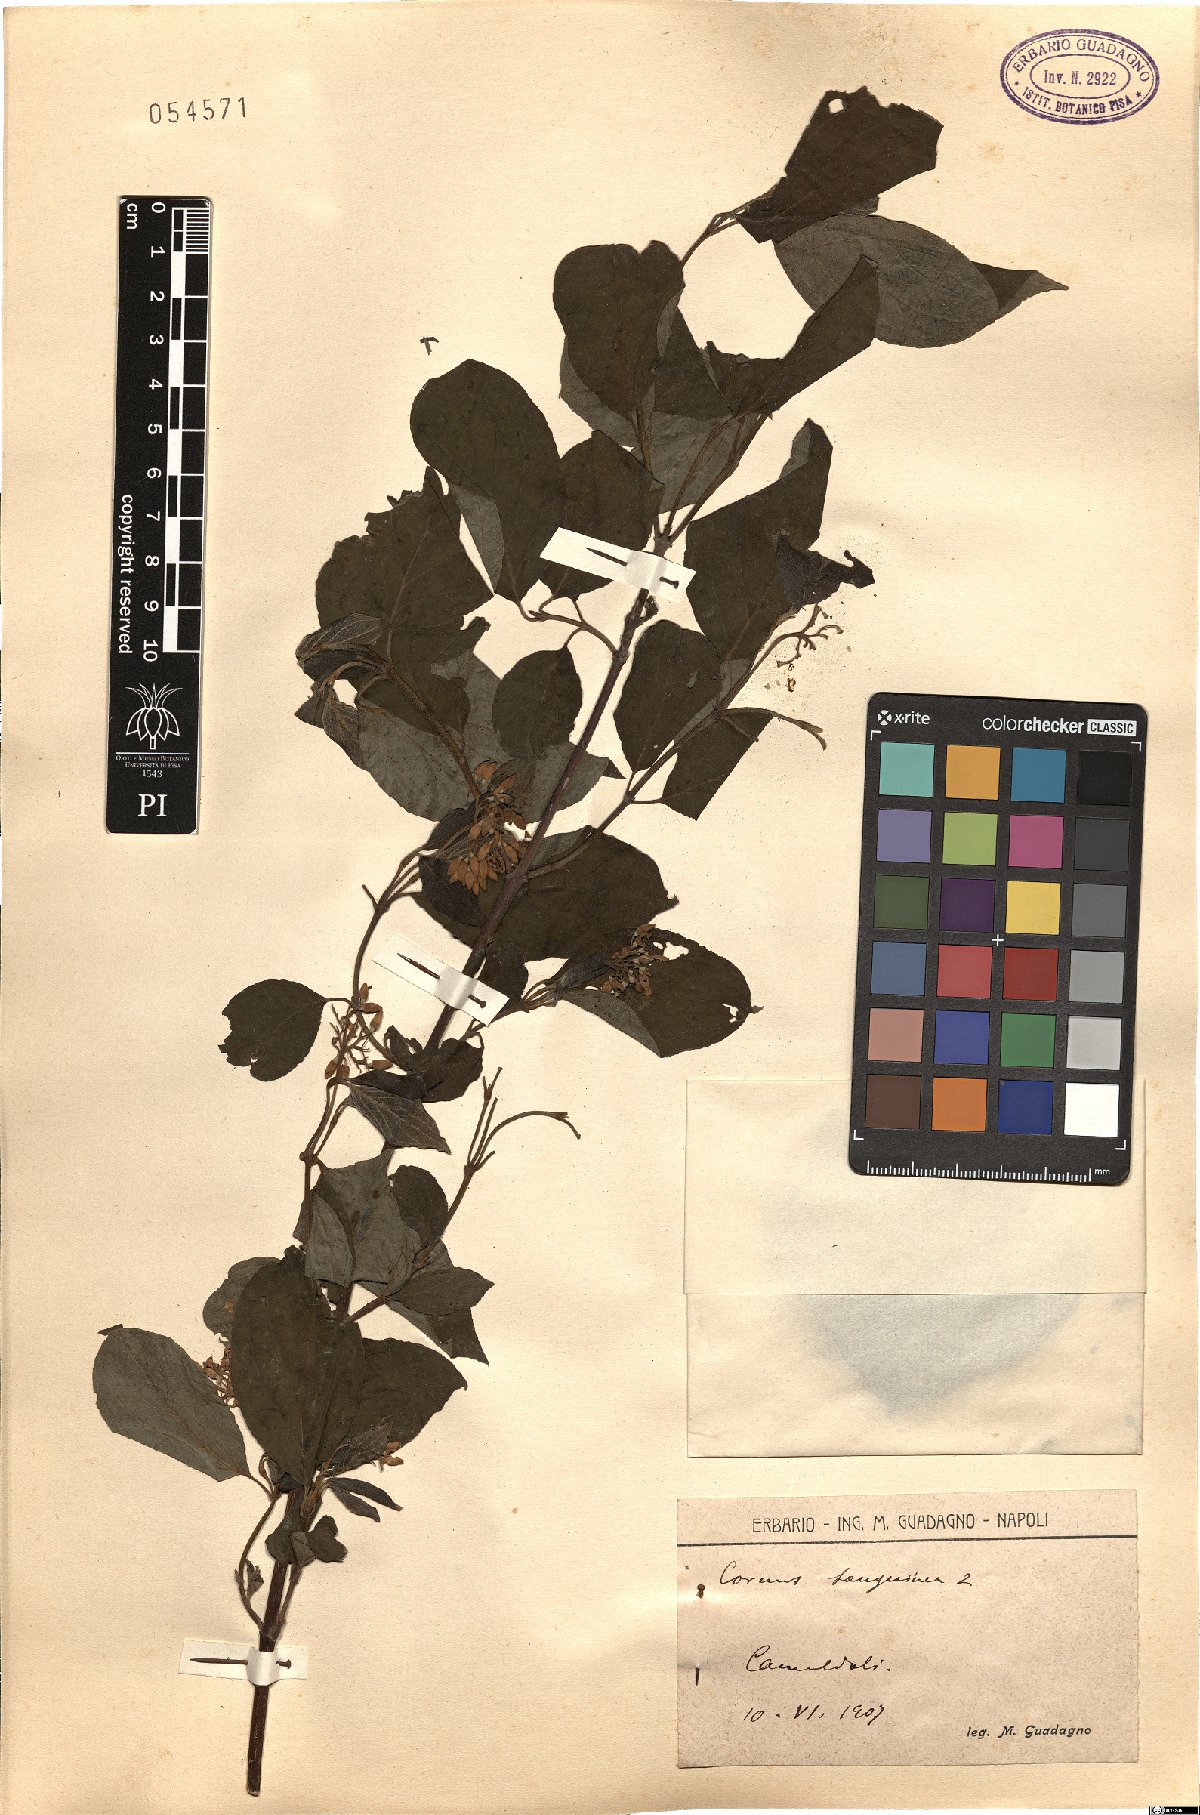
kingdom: Plantae
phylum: Tracheophyta
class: Magnoliopsida
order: Cornales
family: Cornaceae
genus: Cornus
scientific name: Cornus sanguinea
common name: Dogwood
